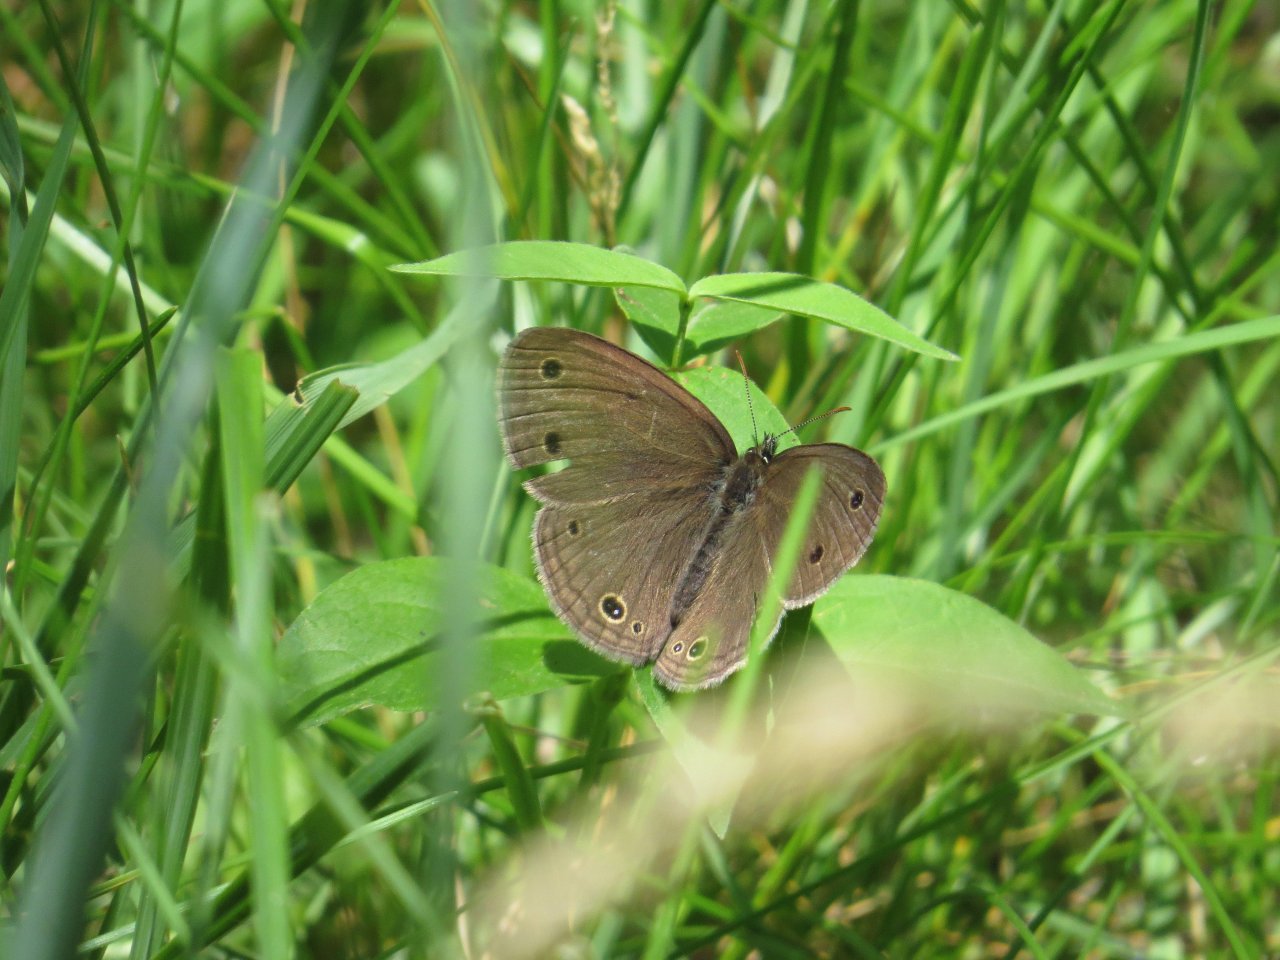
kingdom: Animalia
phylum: Arthropoda
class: Insecta
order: Lepidoptera
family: Nymphalidae
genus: Euptychia
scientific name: Euptychia cymela
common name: Little Wood Satyr
